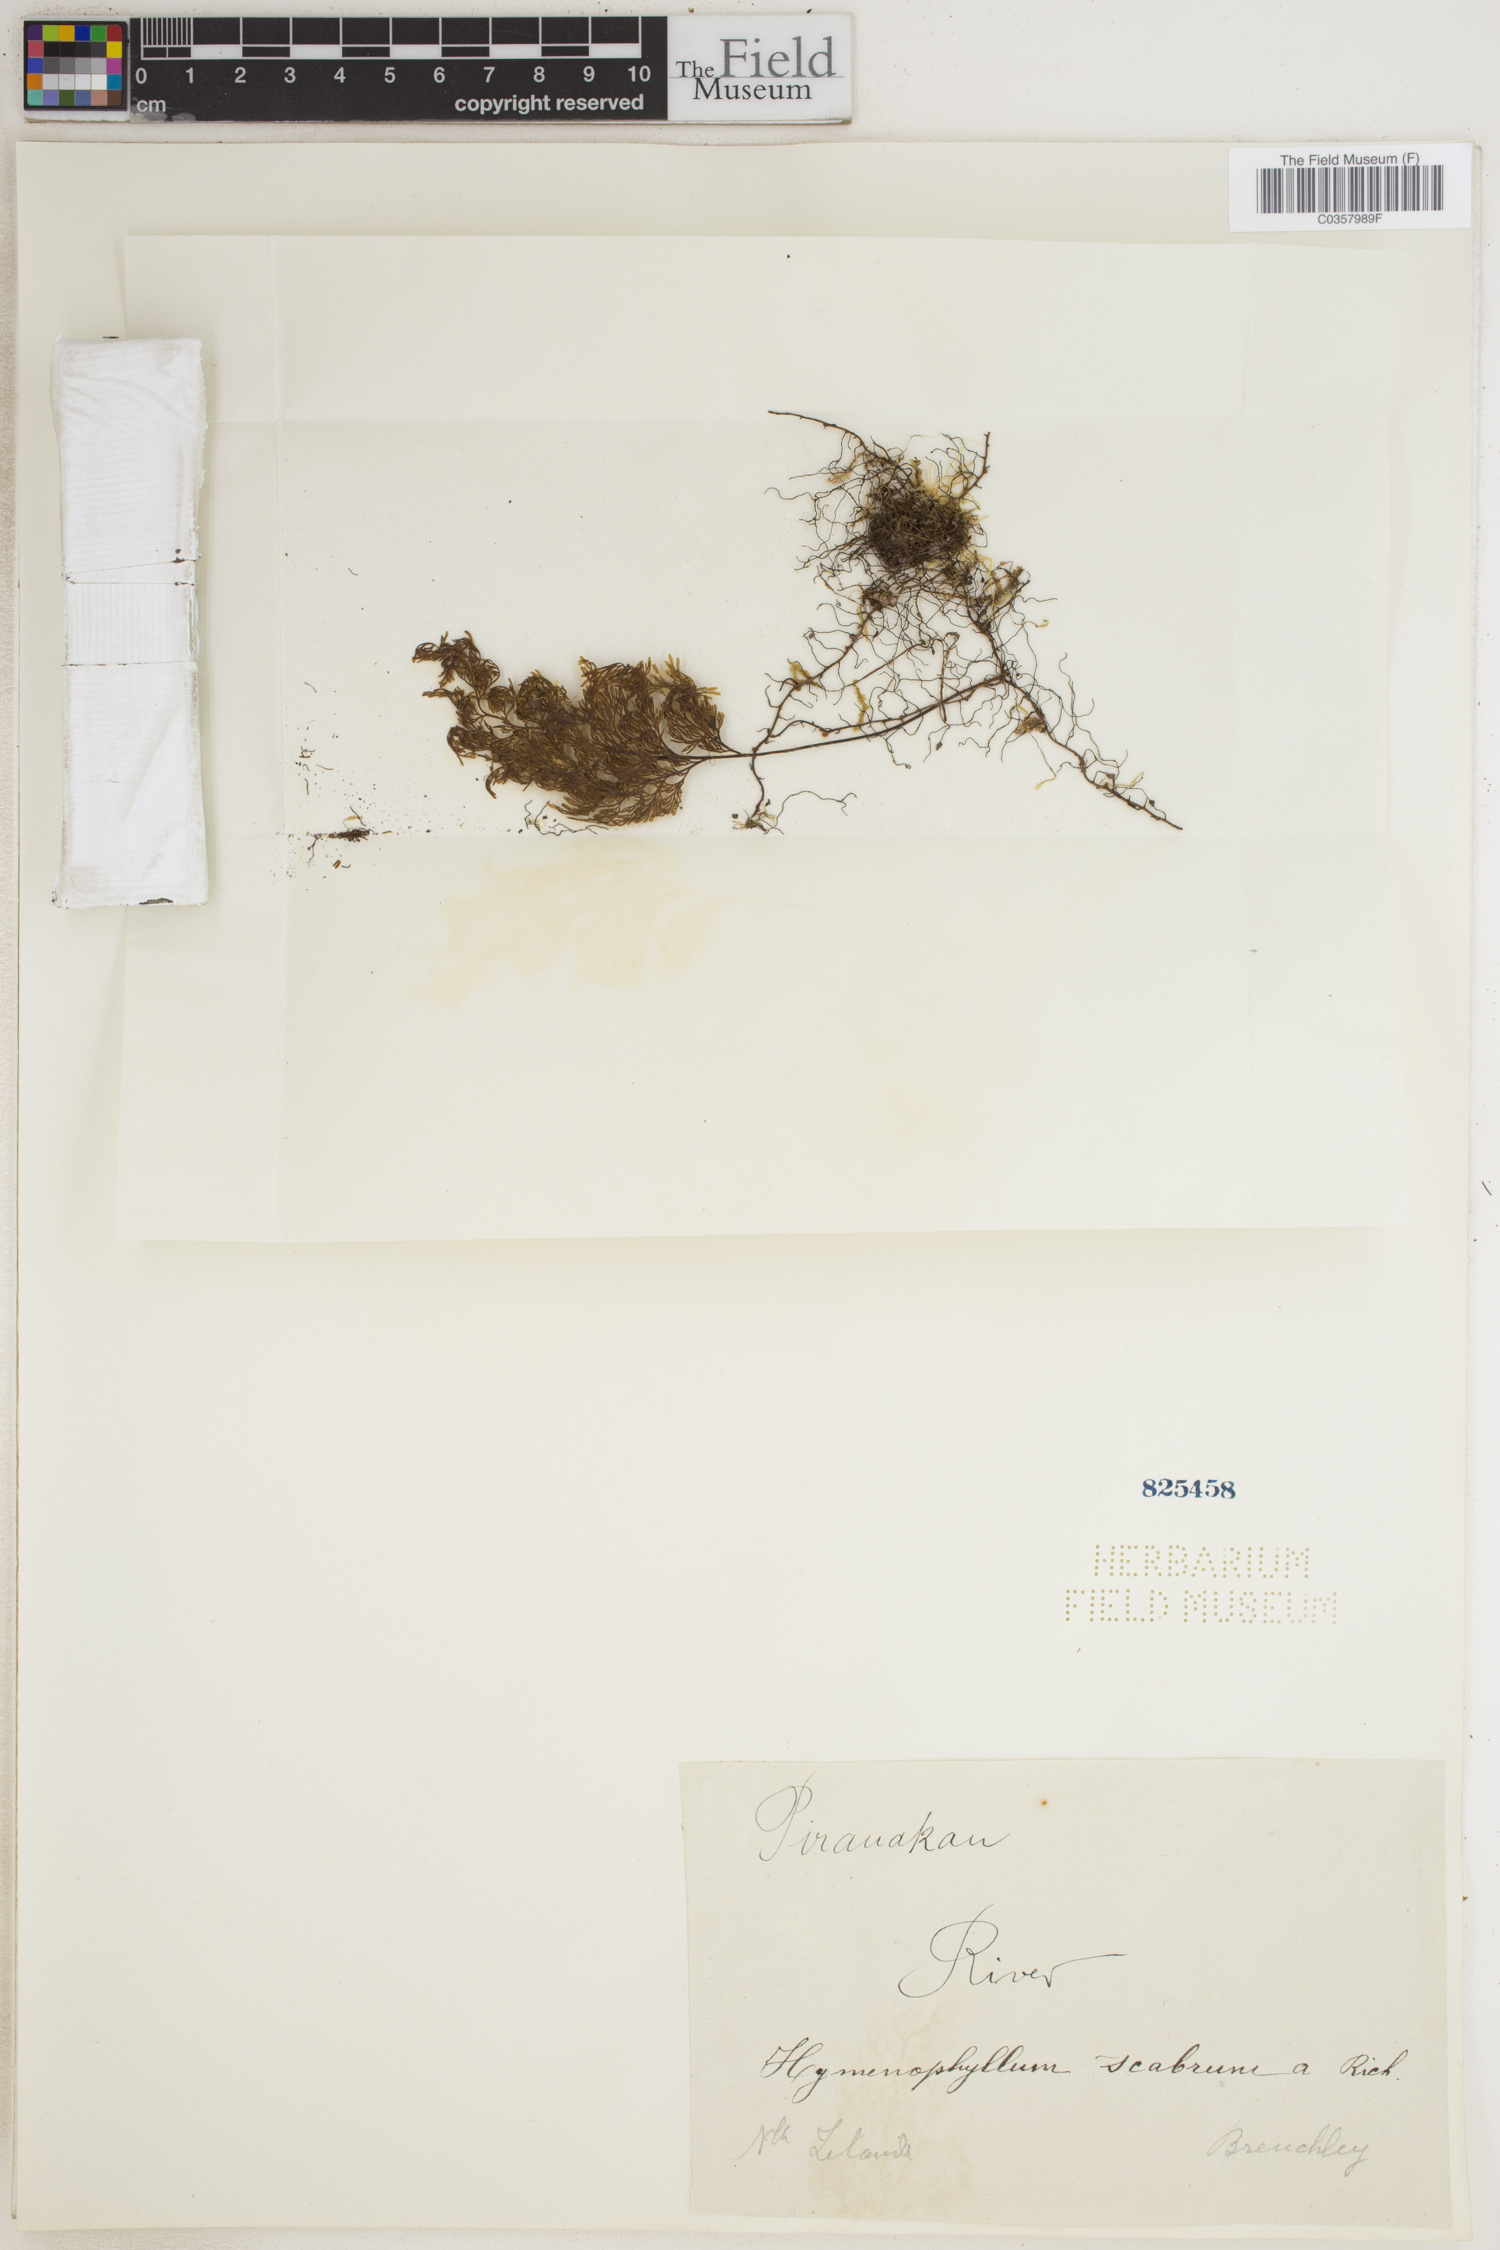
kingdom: Plantae
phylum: Tracheophyta
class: Polypodiopsida
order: Hymenophyllales
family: Hymenophyllaceae
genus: Hymenophyllum
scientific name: Hymenophyllum scabrum
